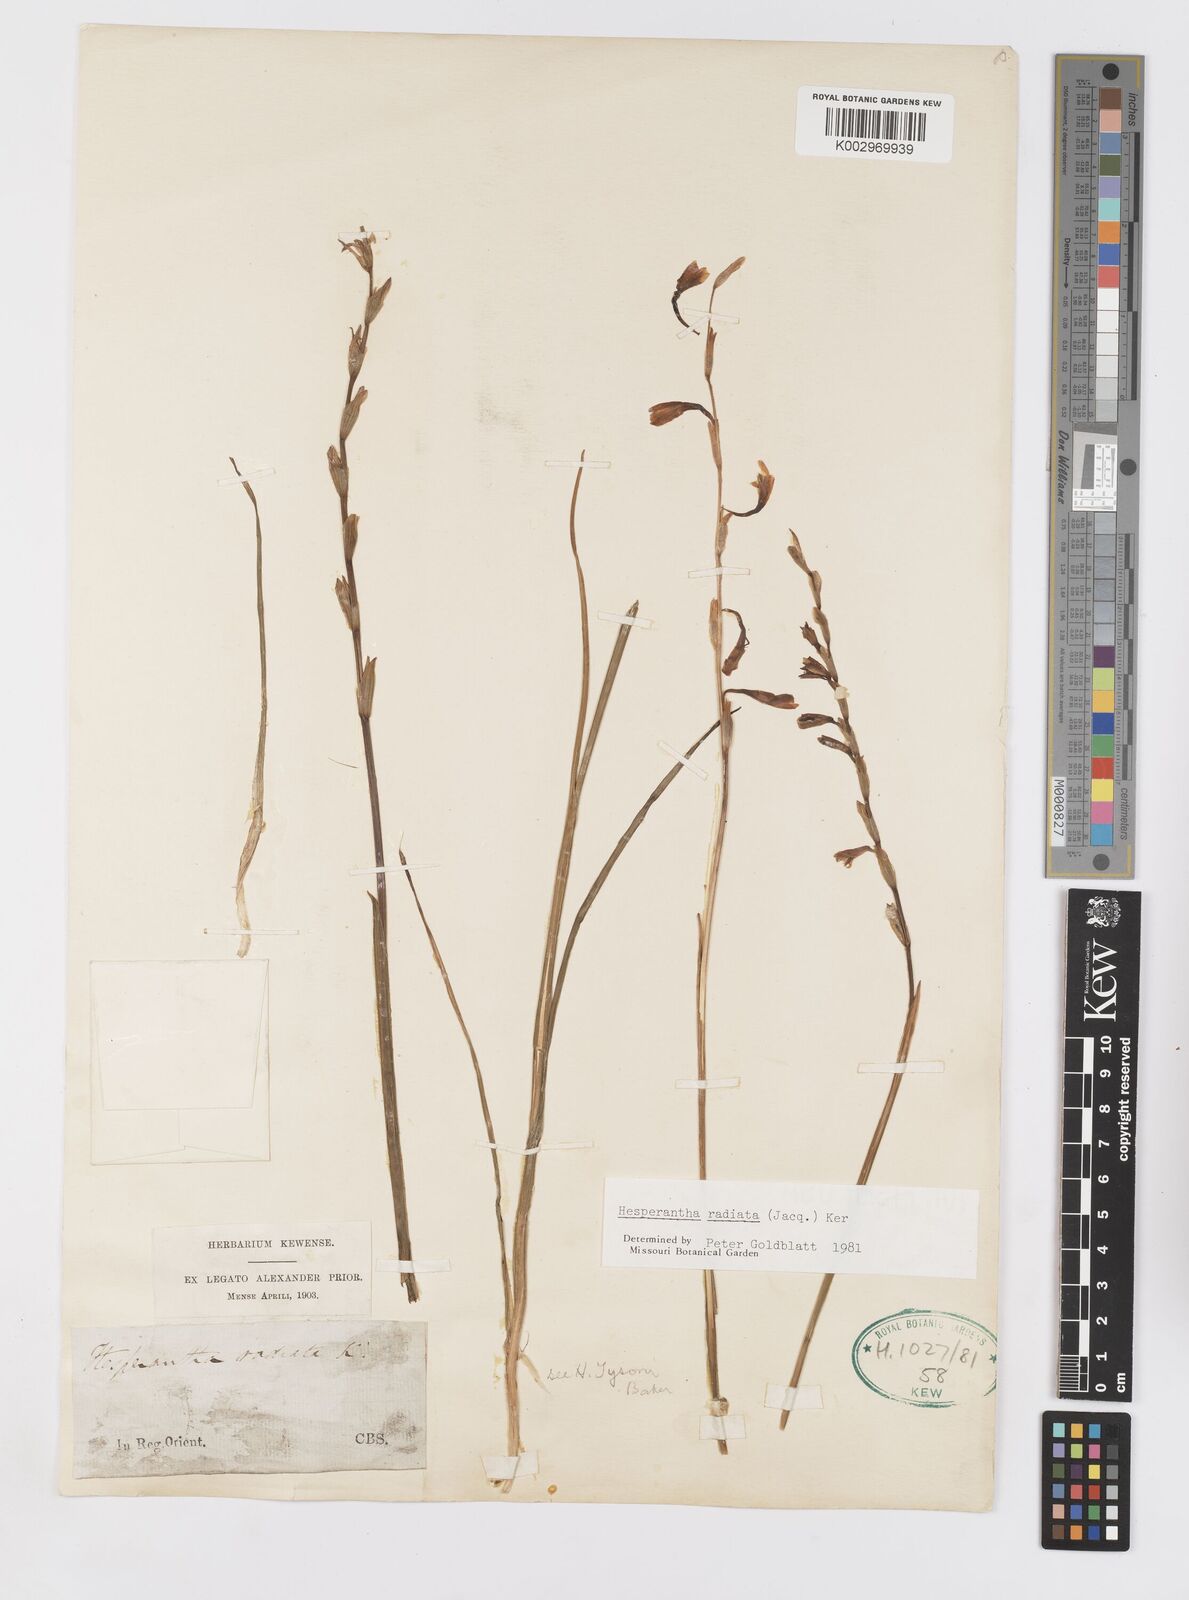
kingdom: Plantae
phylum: Tracheophyta
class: Liliopsida
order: Asparagales
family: Iridaceae
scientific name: Iridaceae
